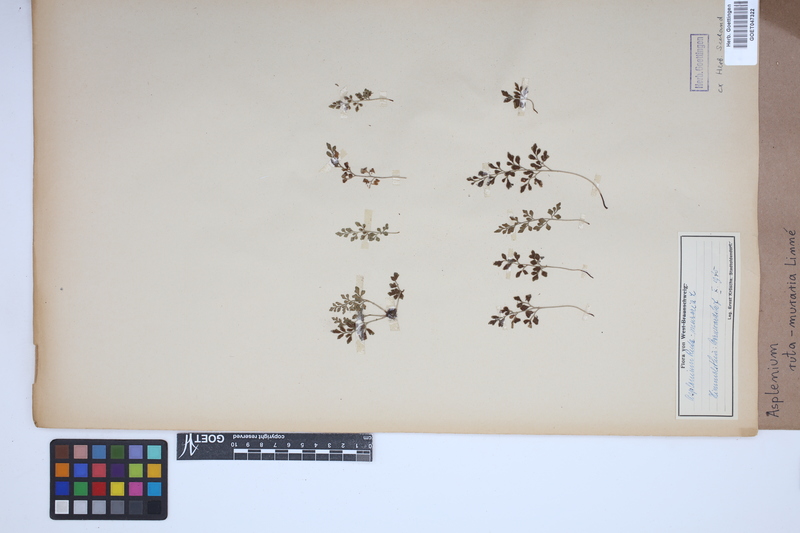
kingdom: Plantae
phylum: Tracheophyta
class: Polypodiopsida
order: Polypodiales
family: Aspleniaceae
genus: Asplenium
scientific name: Asplenium ruta-muraria
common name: Wall-rue
